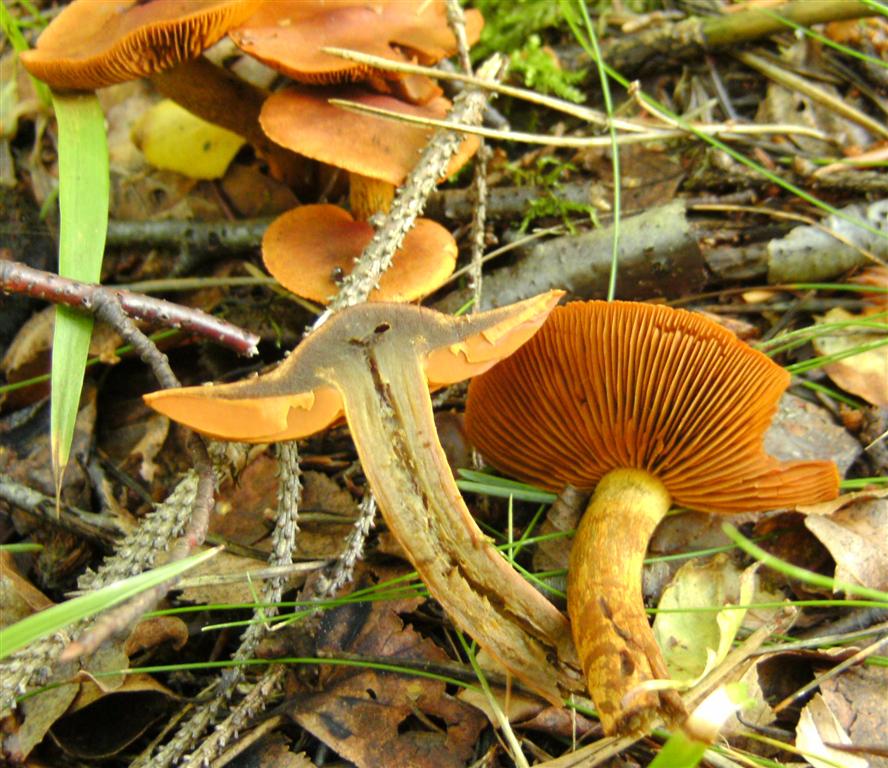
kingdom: Fungi
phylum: Basidiomycota
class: Agaricomycetes
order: Agaricales
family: Cortinariaceae
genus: Cortinarius
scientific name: Cortinarius malicorius
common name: grønkødet slørhat
